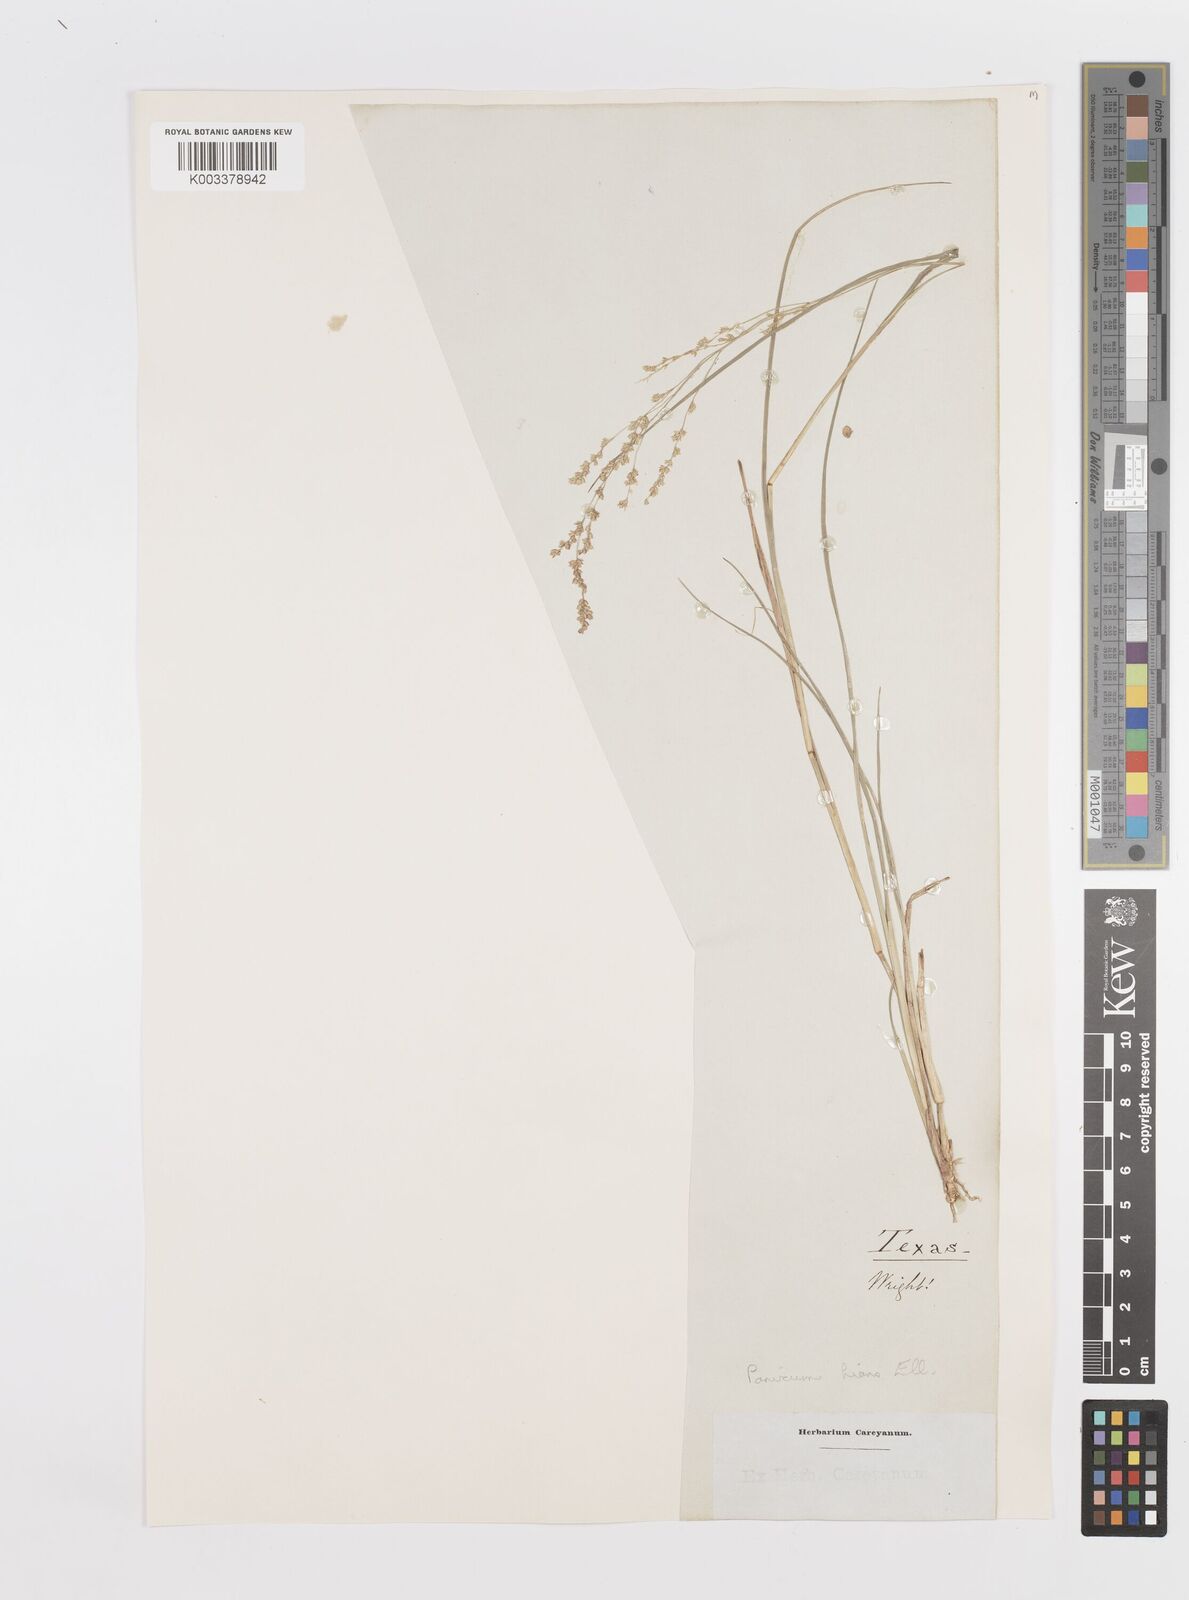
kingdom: Plantae
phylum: Tracheophyta
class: Liliopsida
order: Poales
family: Poaceae
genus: Steinchisma
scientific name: Steinchisma hians
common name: Gaping panic grass
